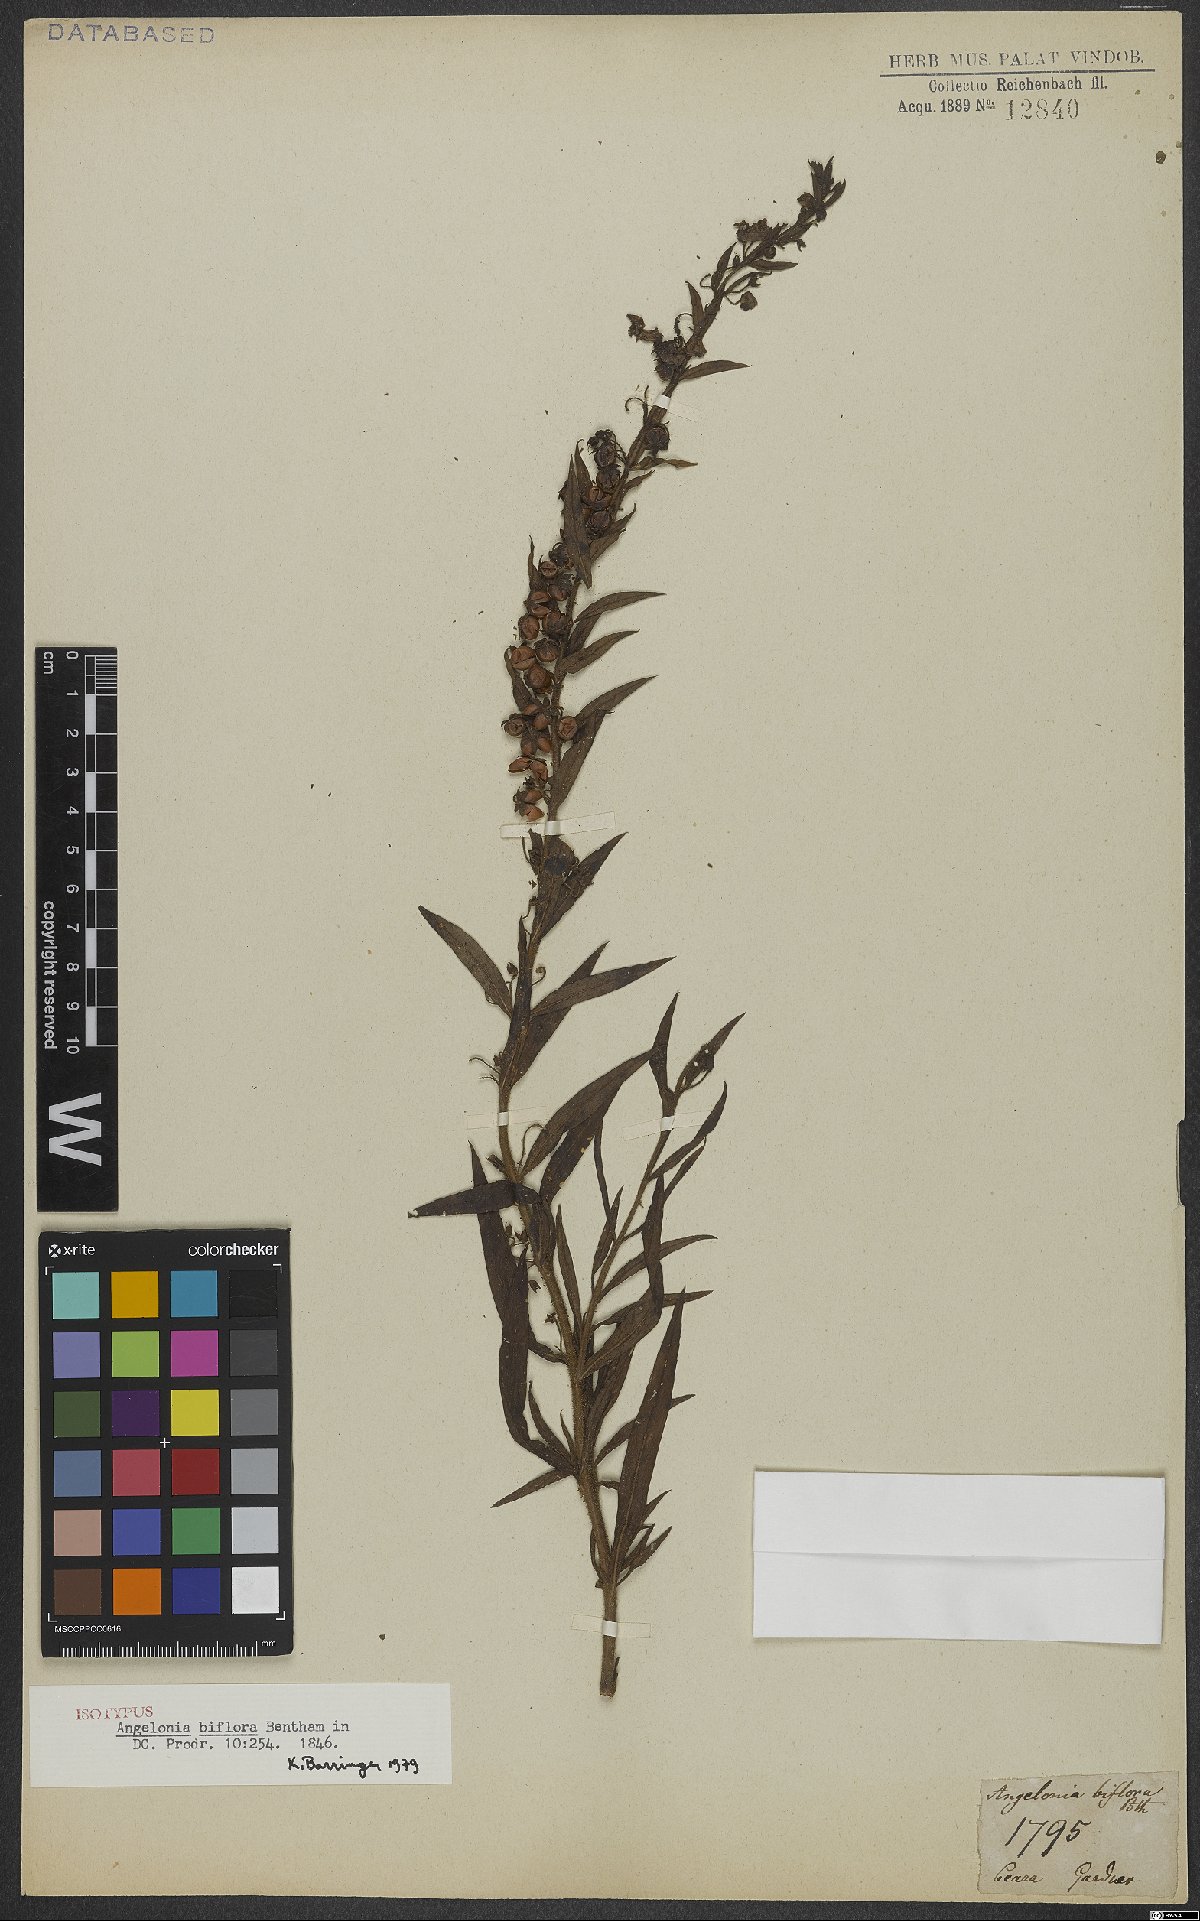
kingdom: Plantae
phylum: Tracheophyta
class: Magnoliopsida
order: Lamiales
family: Plantaginaceae
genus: Angelonia
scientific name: Angelonia biflora
